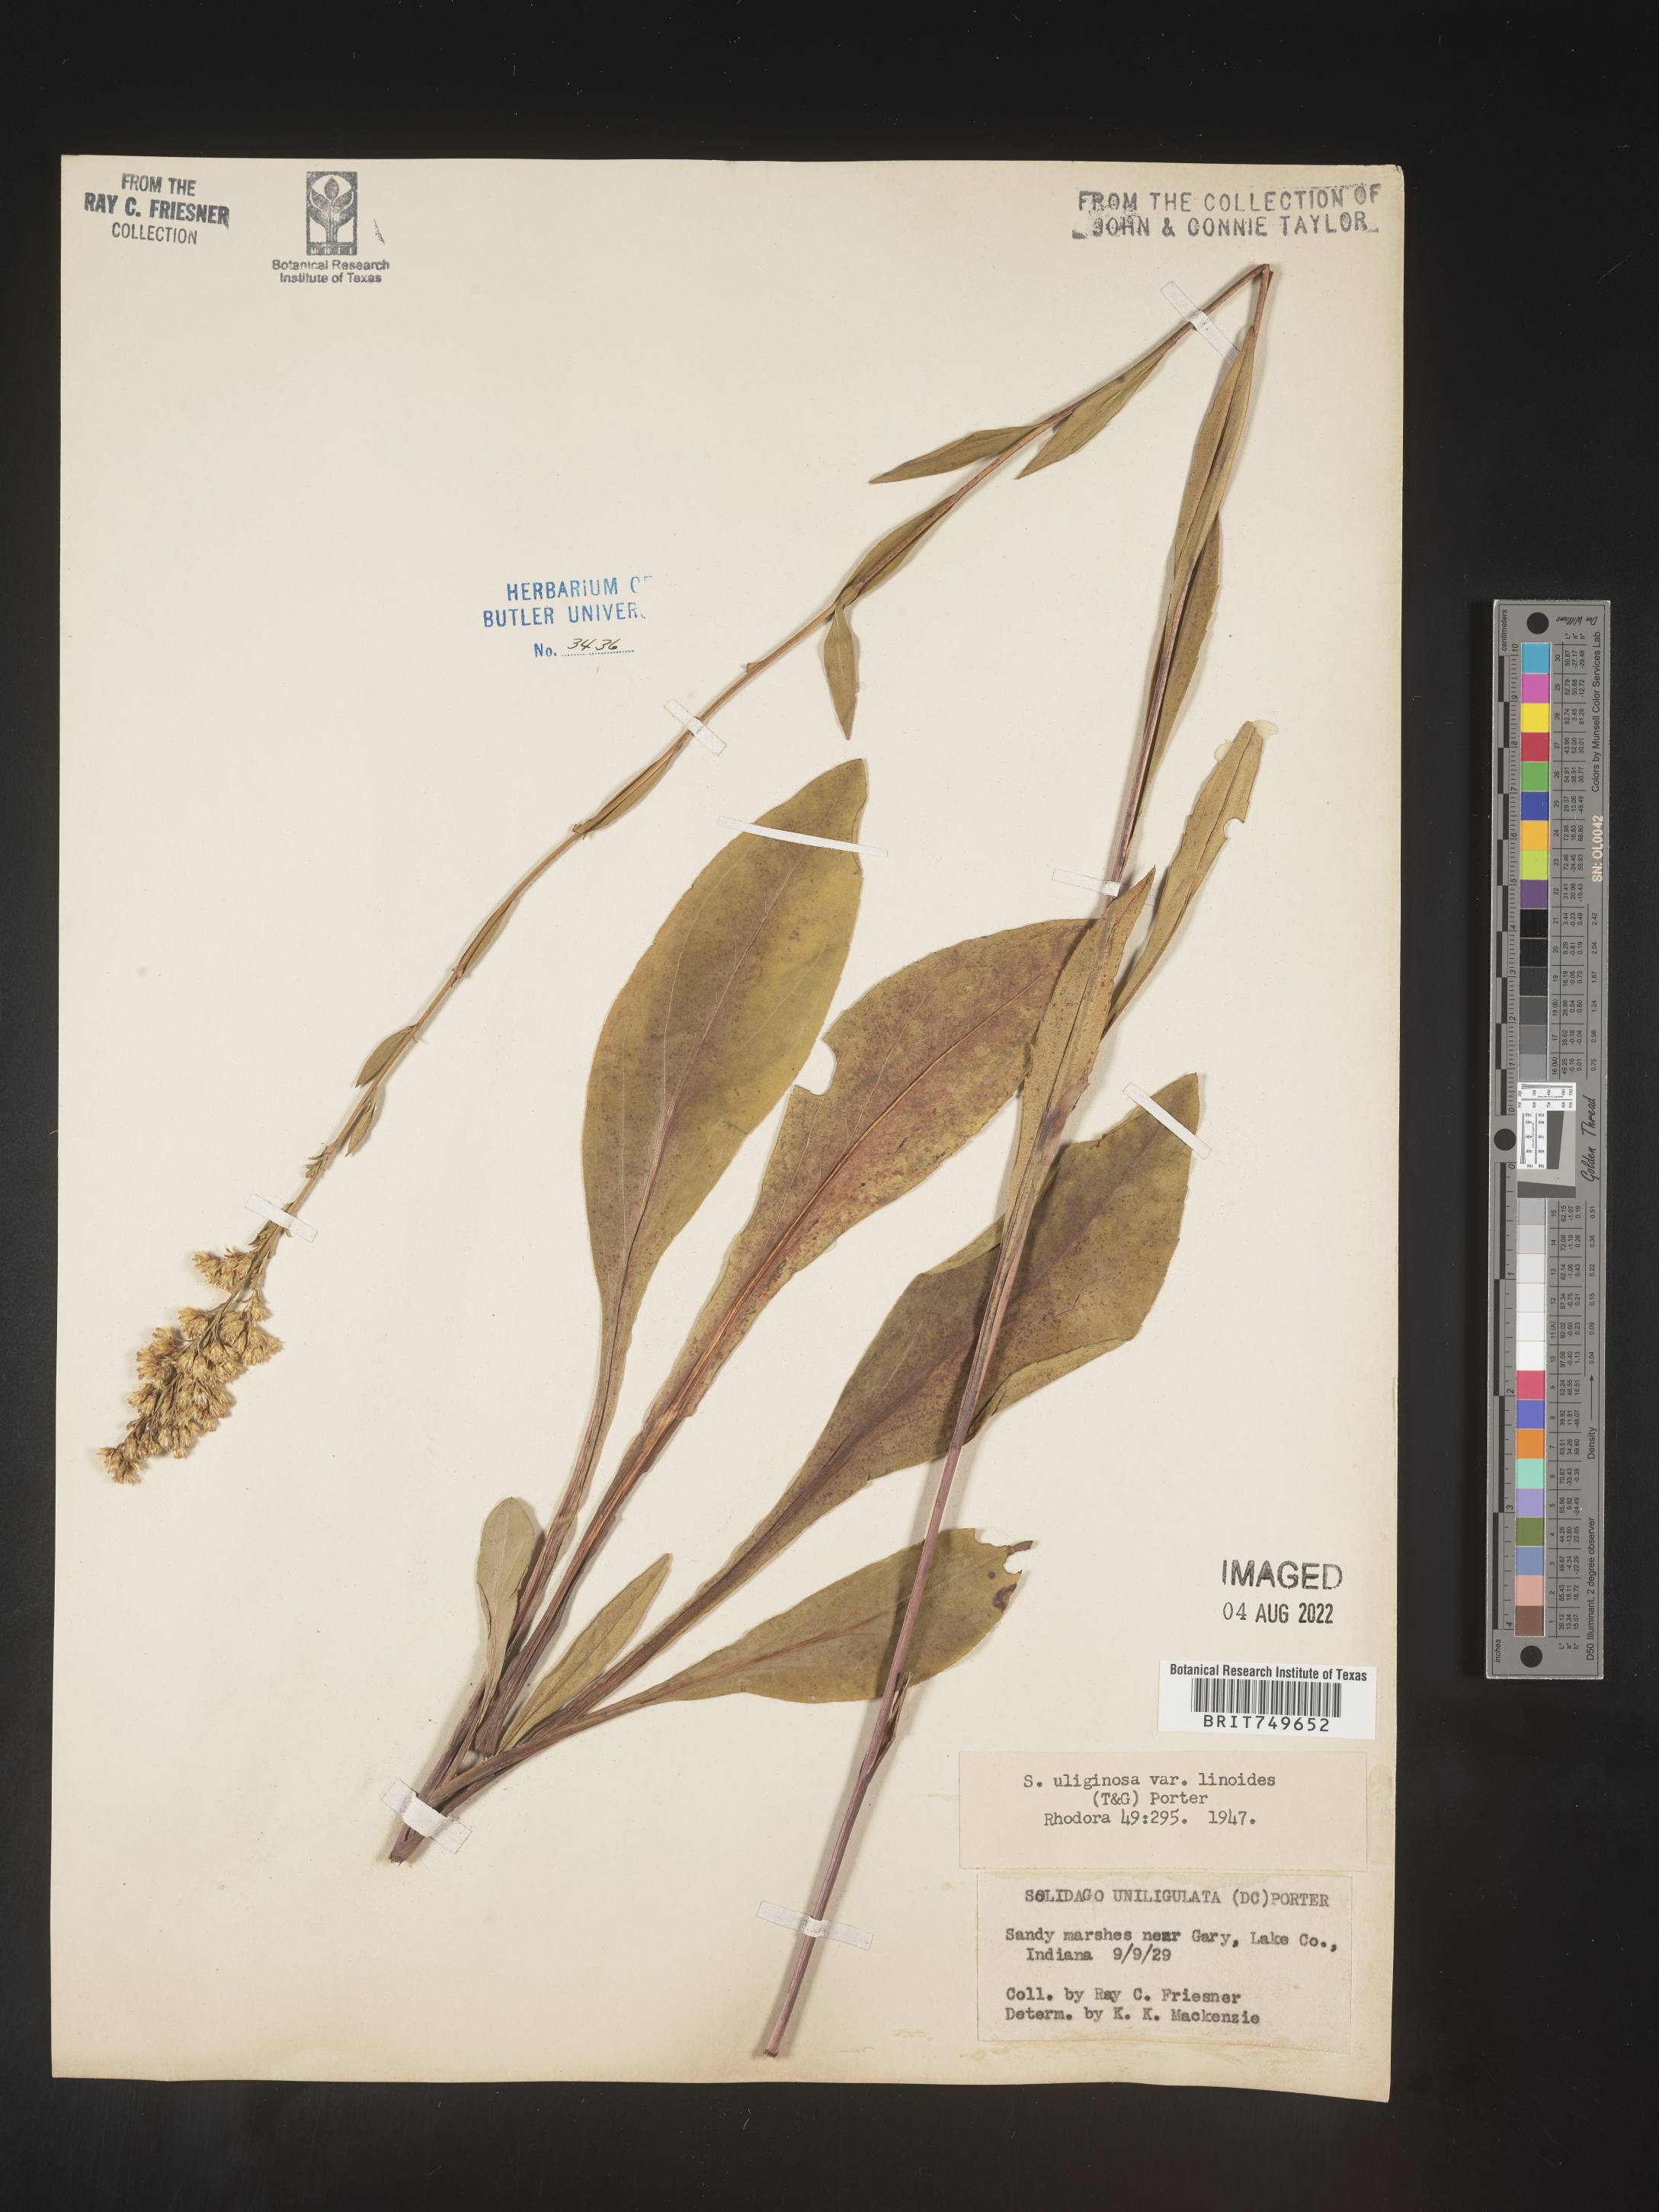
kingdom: Plantae
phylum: Tracheophyta
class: Magnoliopsida
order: Asterales
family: Asteraceae
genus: Solidago
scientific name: Solidago uliginosa
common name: Bog goldenrod
